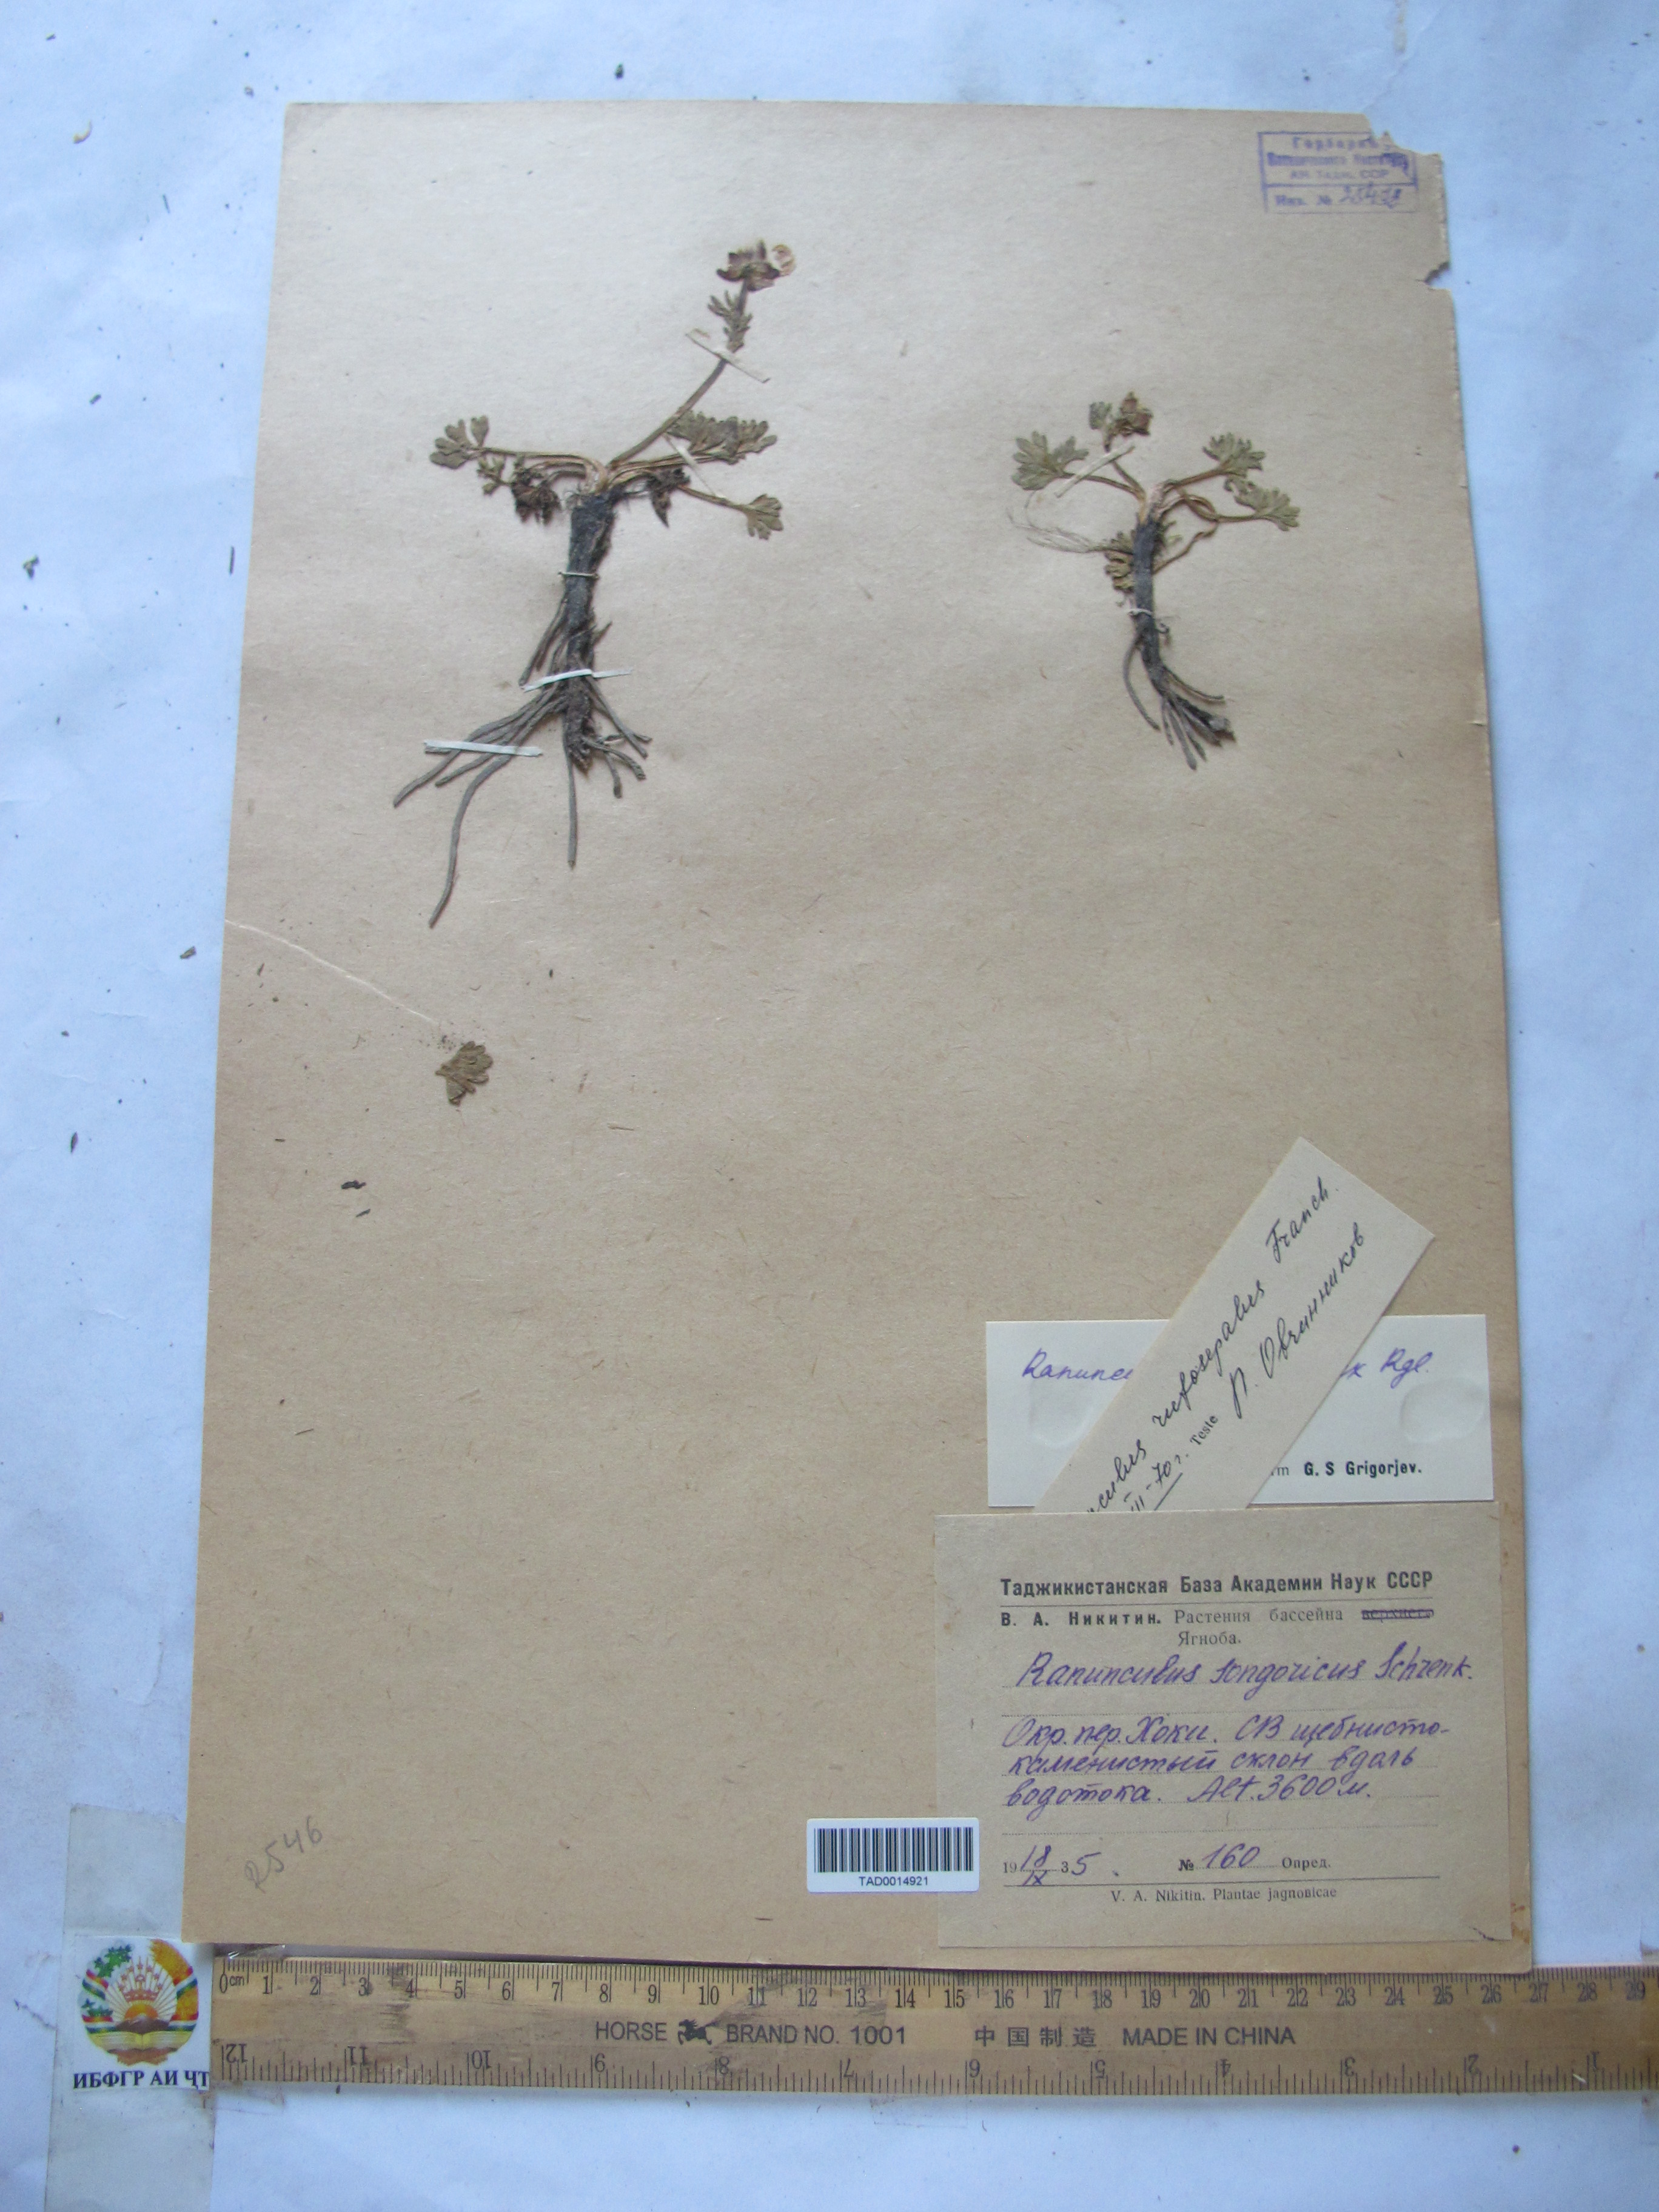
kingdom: Plantae
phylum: Tracheophyta
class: Magnoliopsida
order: Ranunculales
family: Ranunculaceae
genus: Ranunculus
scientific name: Ranunculus songaricus
